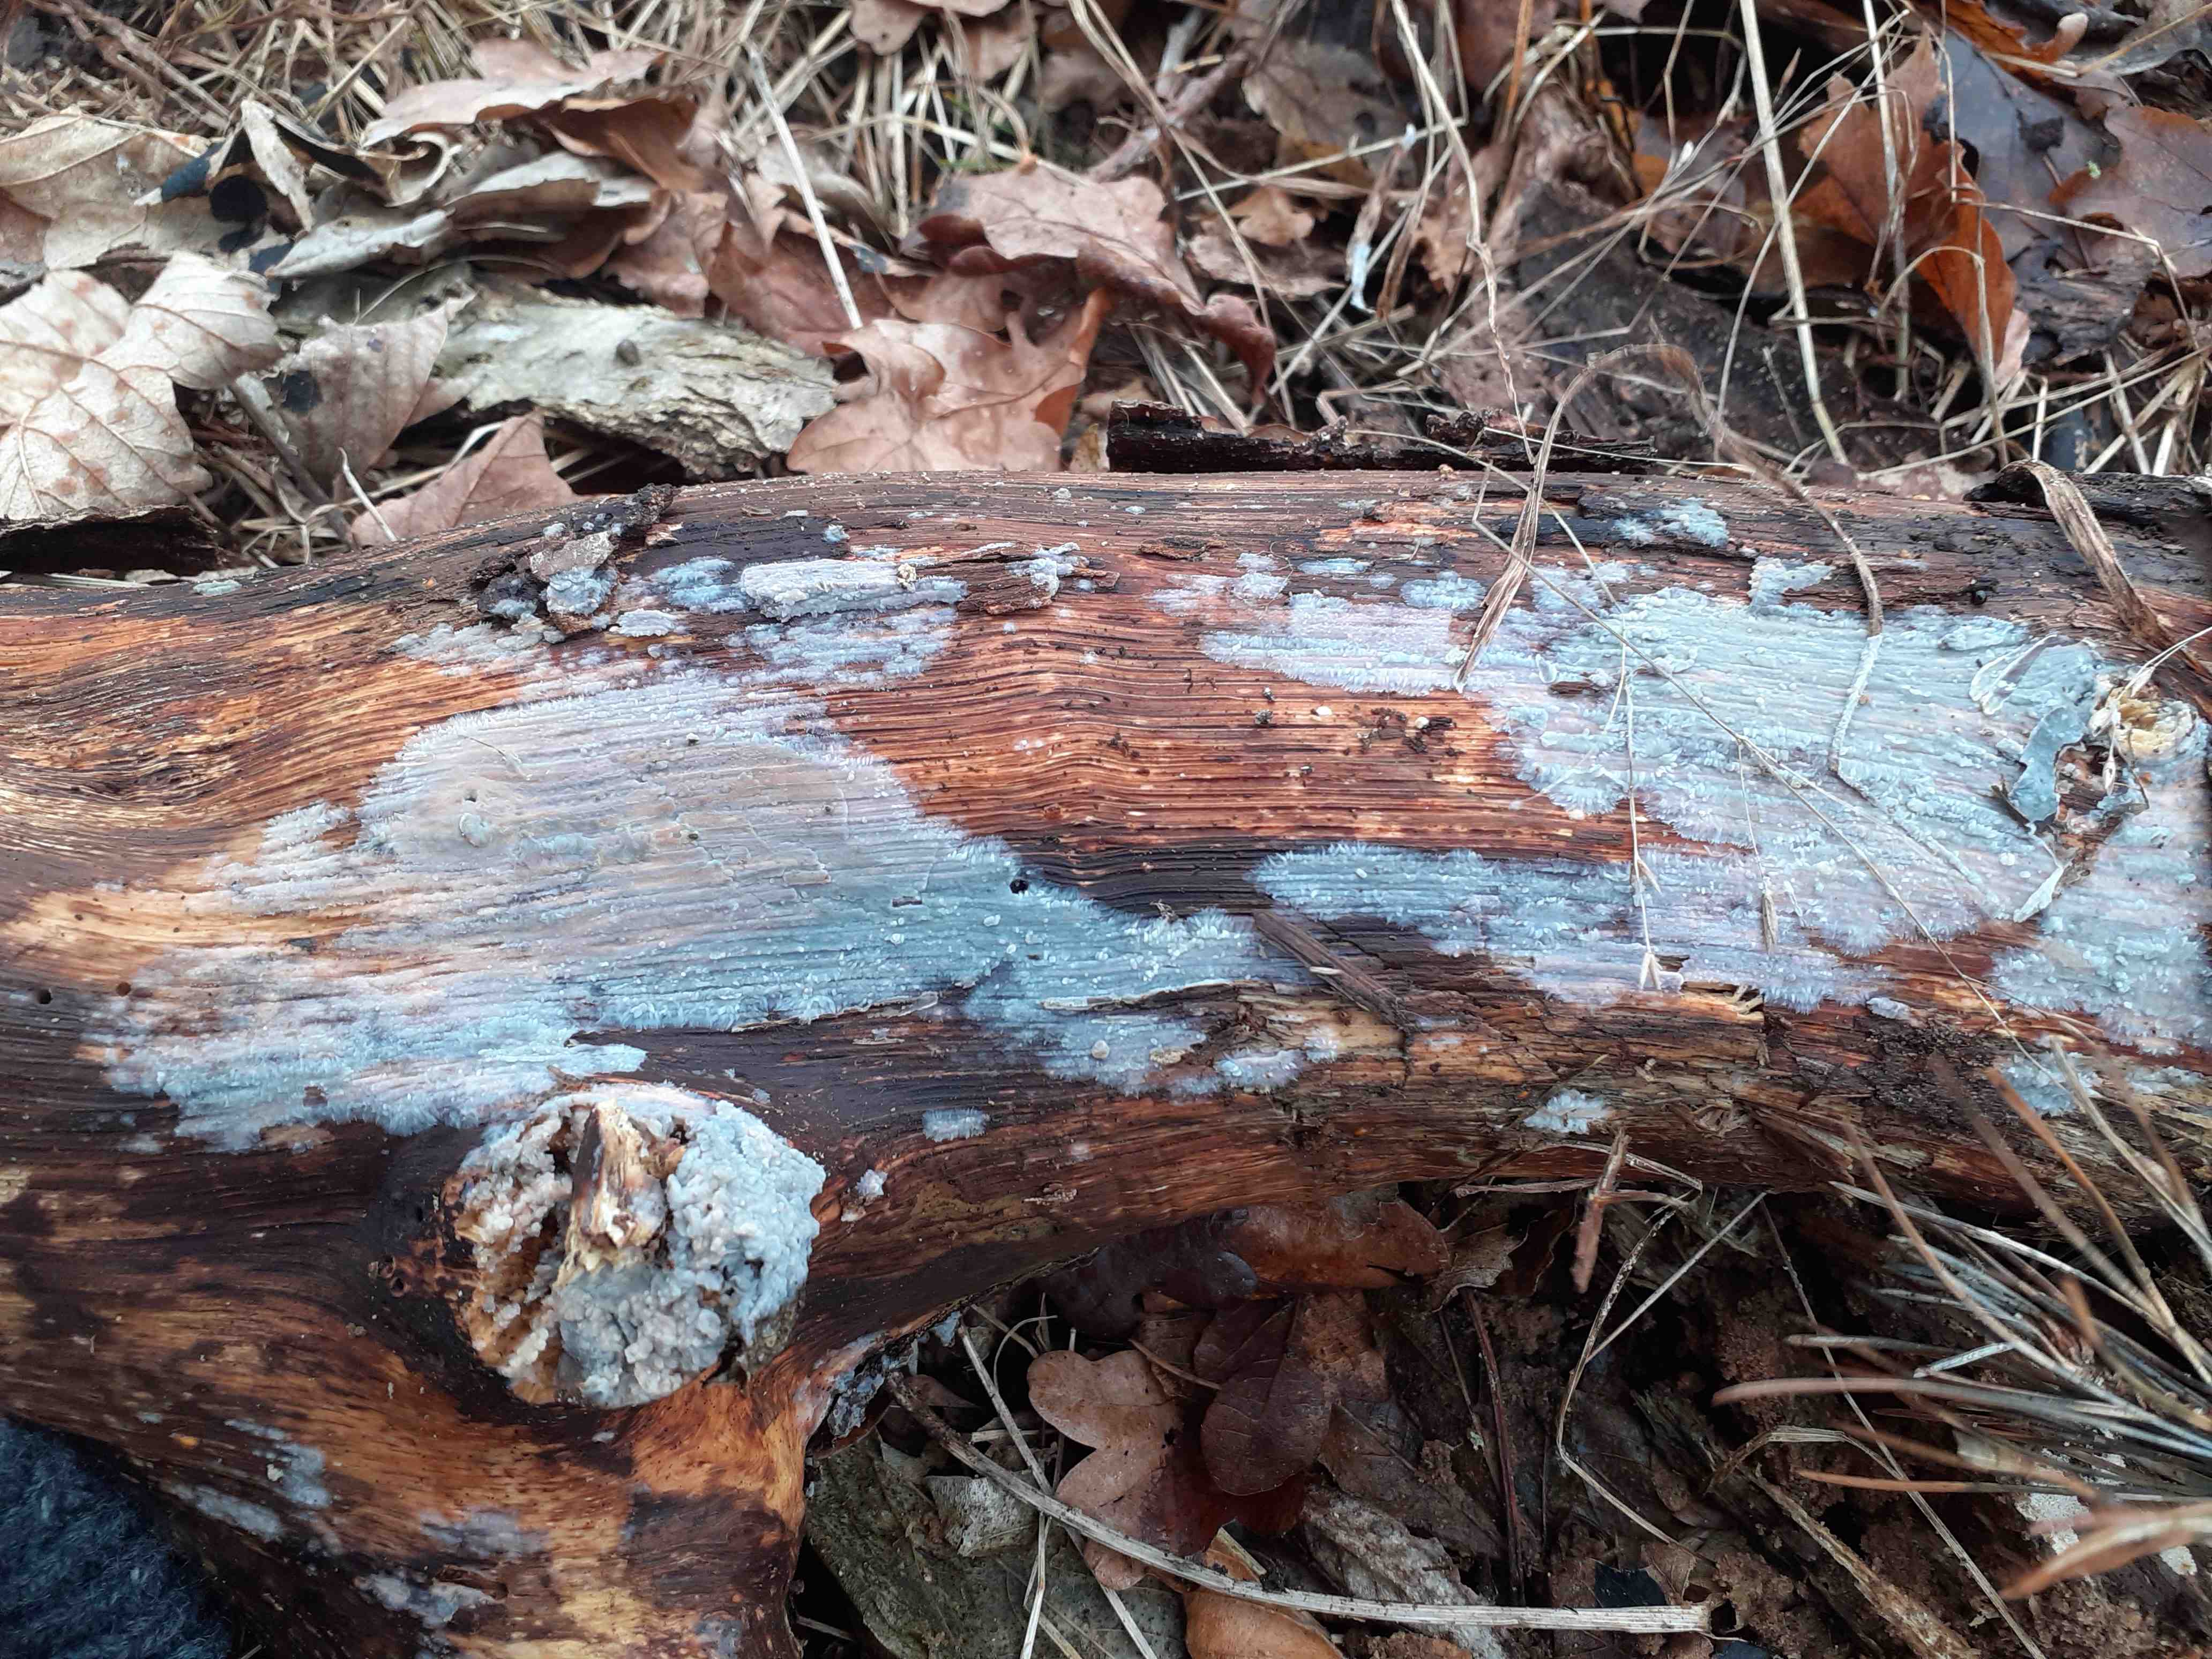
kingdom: Fungi
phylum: Basidiomycota
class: Agaricomycetes
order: Agaricales
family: Radulomycetaceae
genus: Radulomyces
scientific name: Radulomyces confluens
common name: glat naftalinskind
